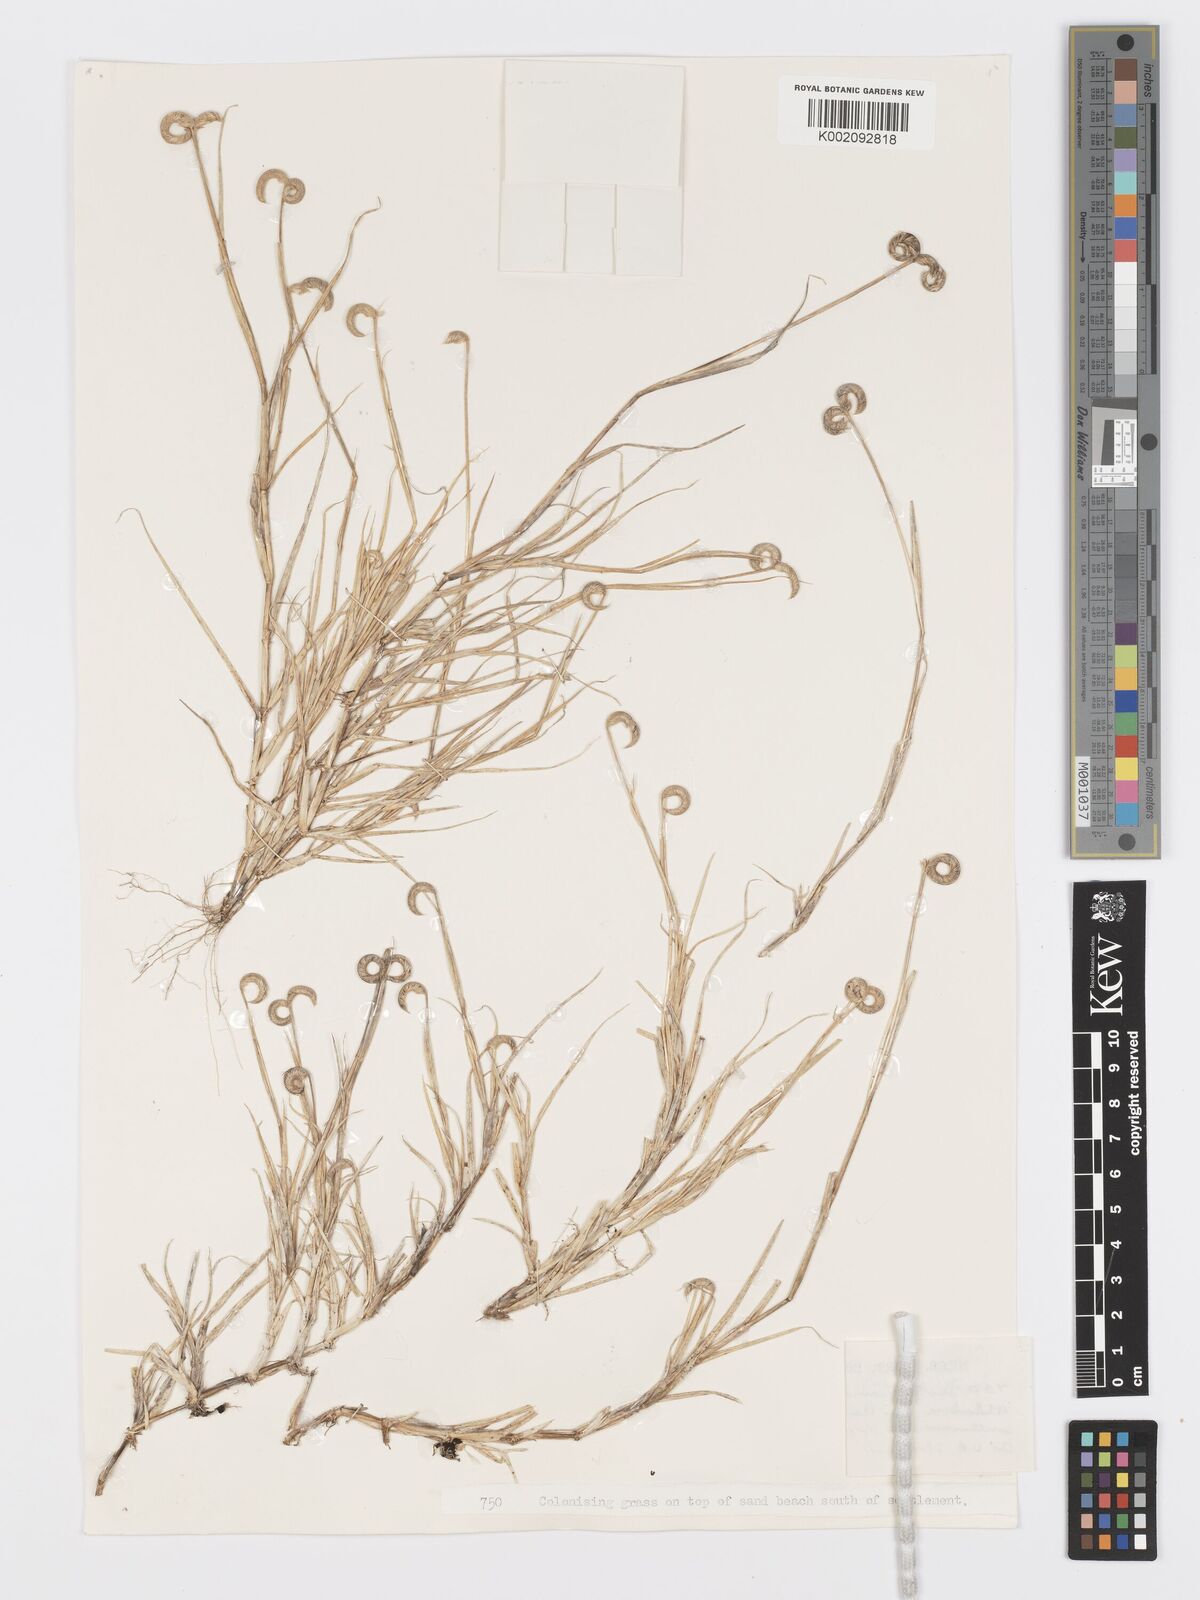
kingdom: Plantae
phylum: Tracheophyta
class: Liliopsida
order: Poales
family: Poaceae
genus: Dactyloctenium
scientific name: Dactyloctenium pilosum
